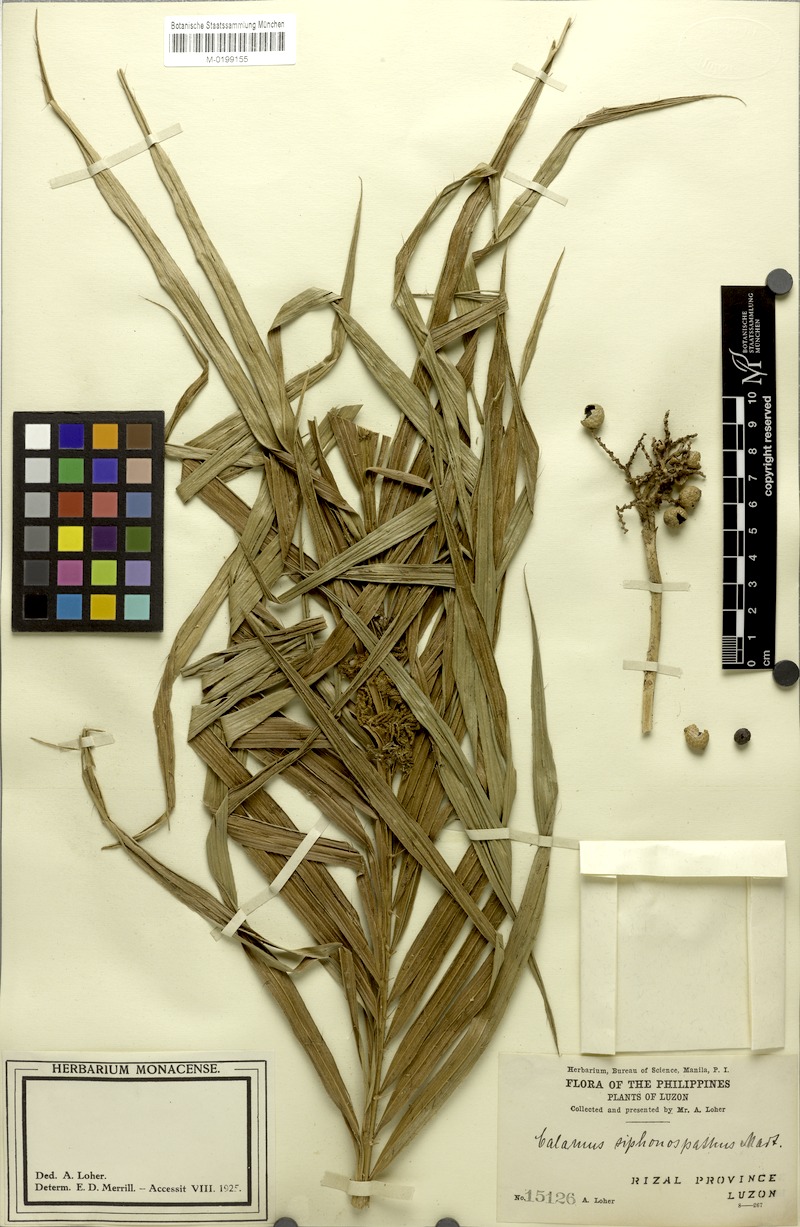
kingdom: Plantae
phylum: Tracheophyta
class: Liliopsida
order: Arecales
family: Arecaceae
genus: Calamus
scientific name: Calamus siphonospathus
